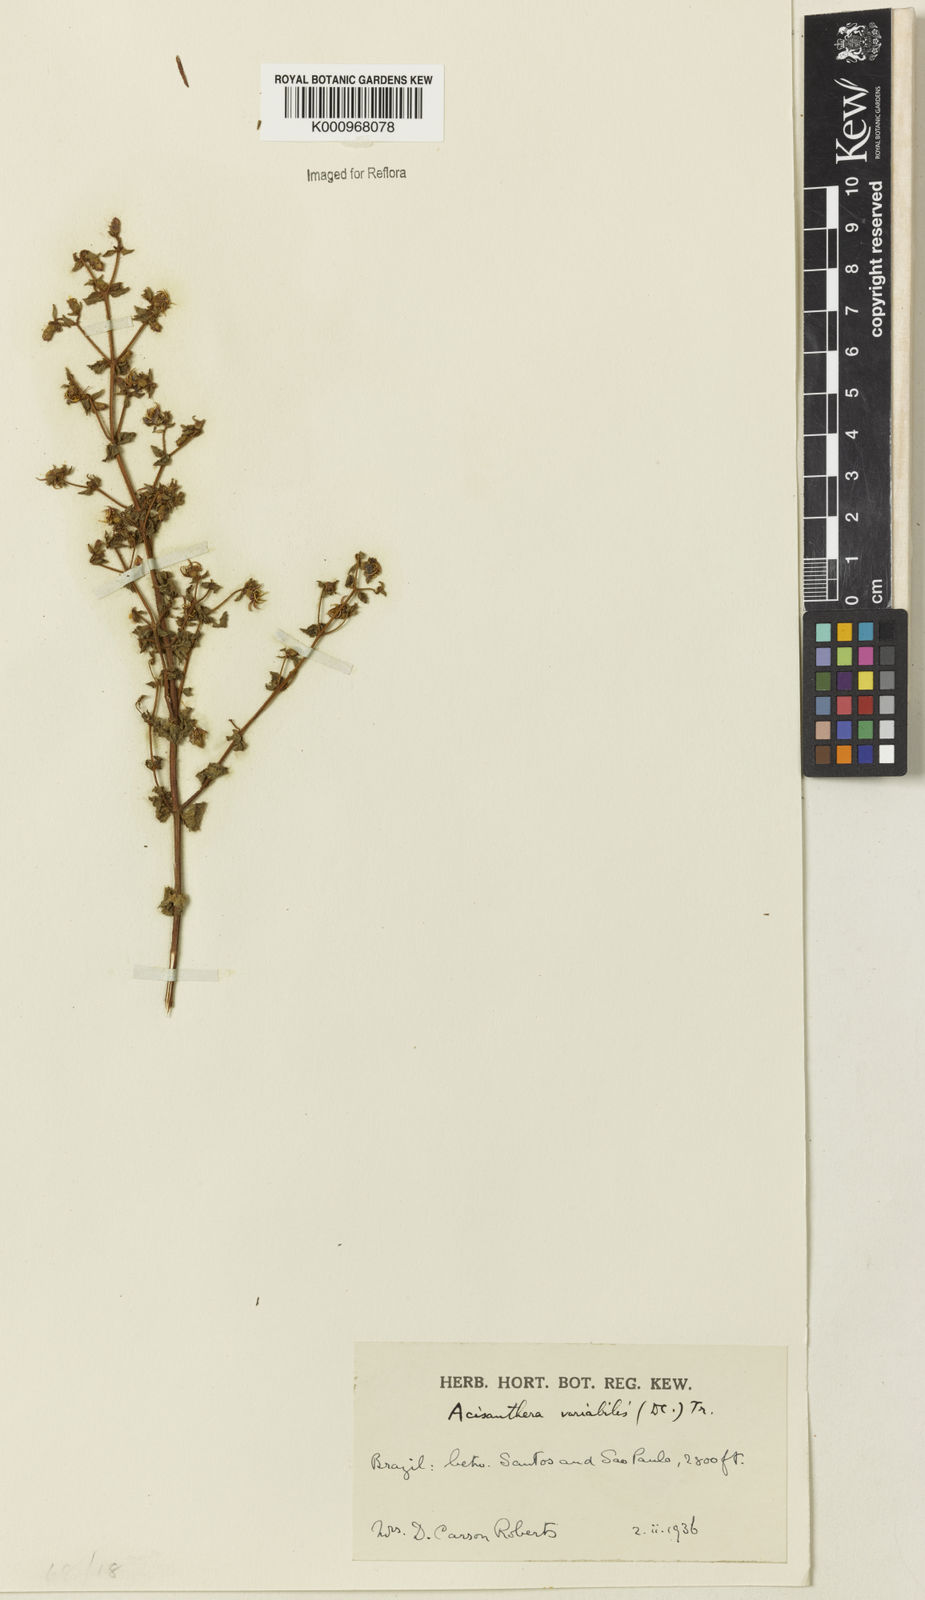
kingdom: Plantae
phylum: Tracheophyta
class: Magnoliopsida
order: Myrtales
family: Melastomataceae
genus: Acisanthera
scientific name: Acisanthera variabilis
